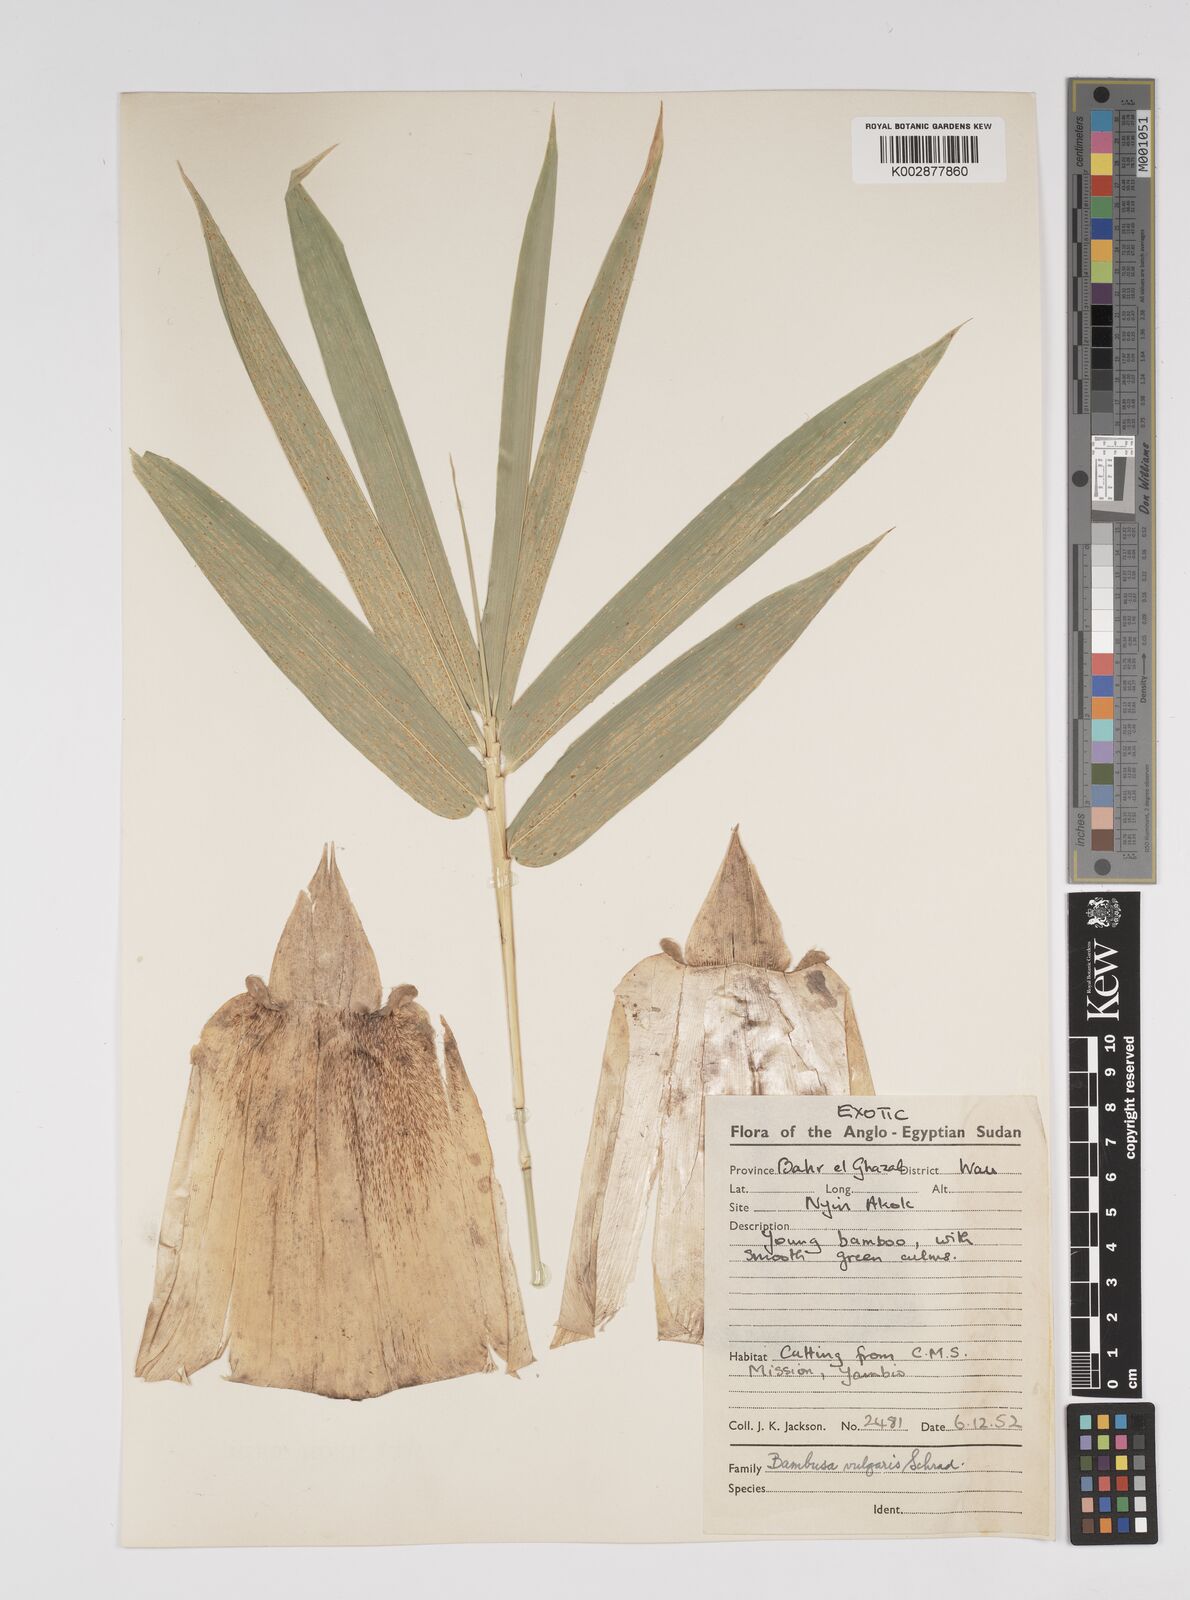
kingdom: Plantae
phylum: Tracheophyta
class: Liliopsida
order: Poales
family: Poaceae
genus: Bambusa
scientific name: Bambusa vulgaris
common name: Common bamboo
